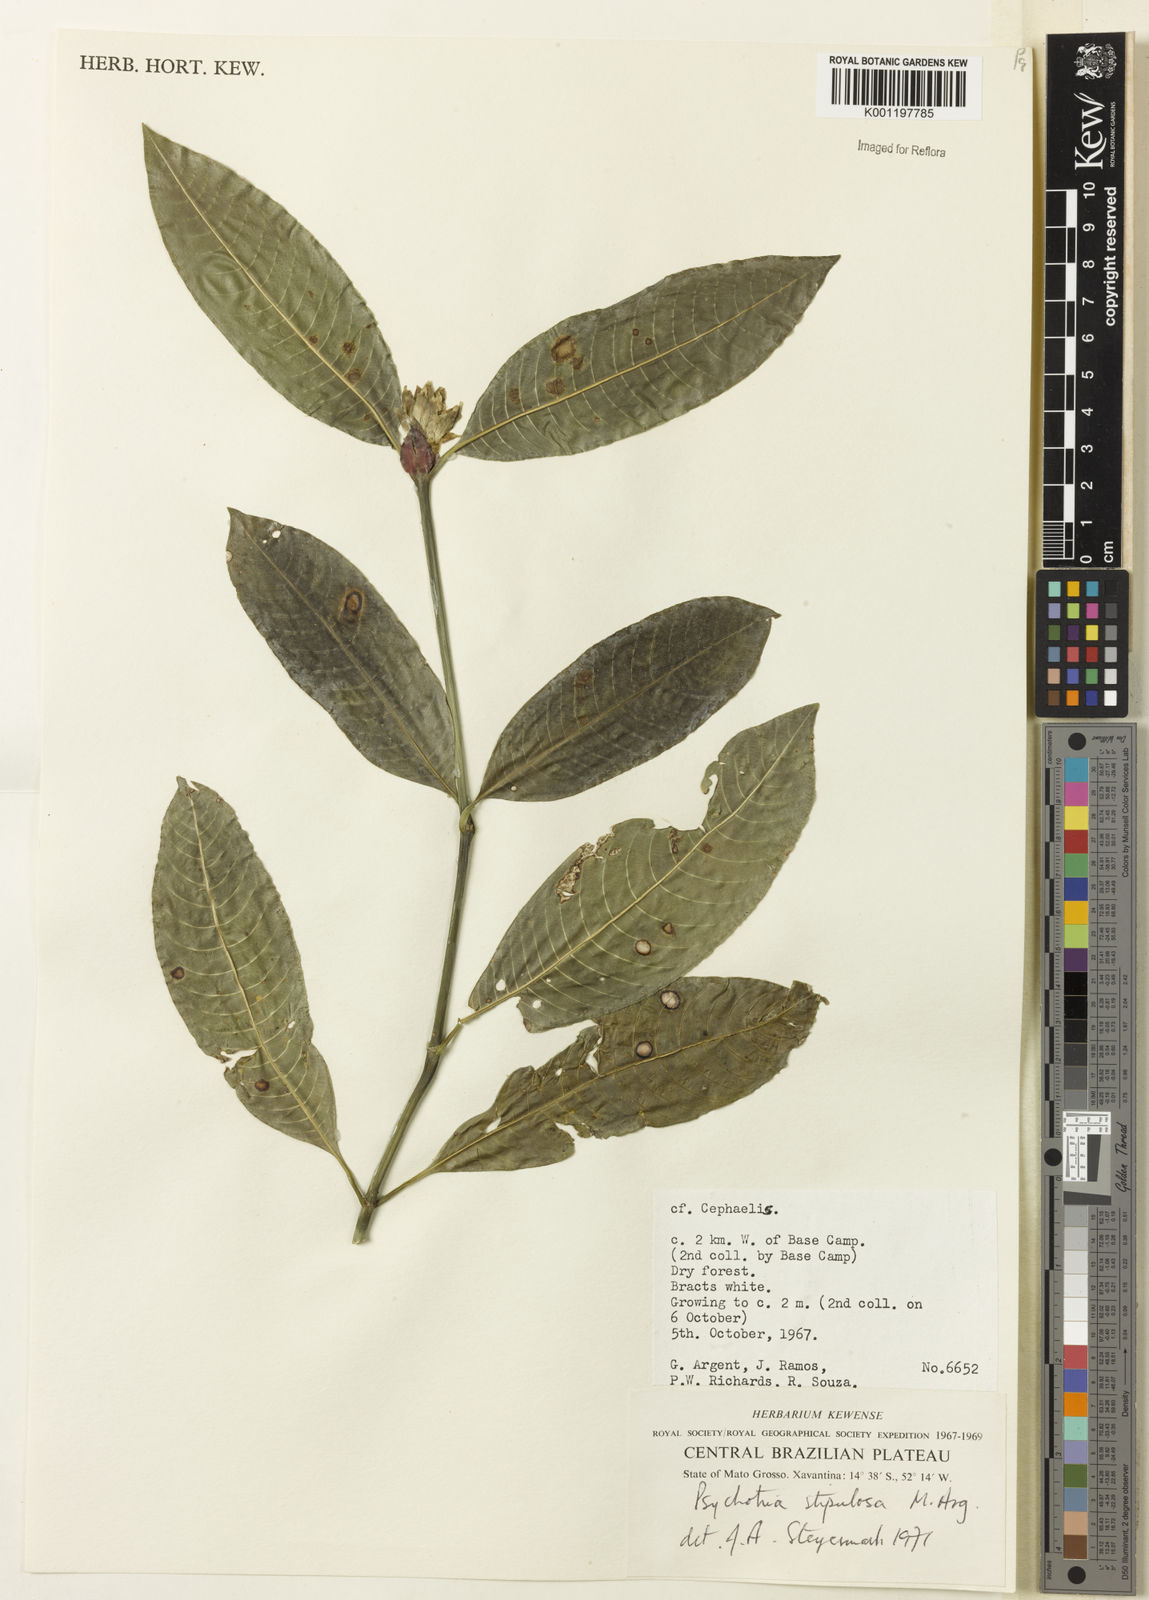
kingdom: Plantae
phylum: Tracheophyta
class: Magnoliopsida
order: Gentianales
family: Rubiaceae
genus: Psychotria
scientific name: Psychotria
